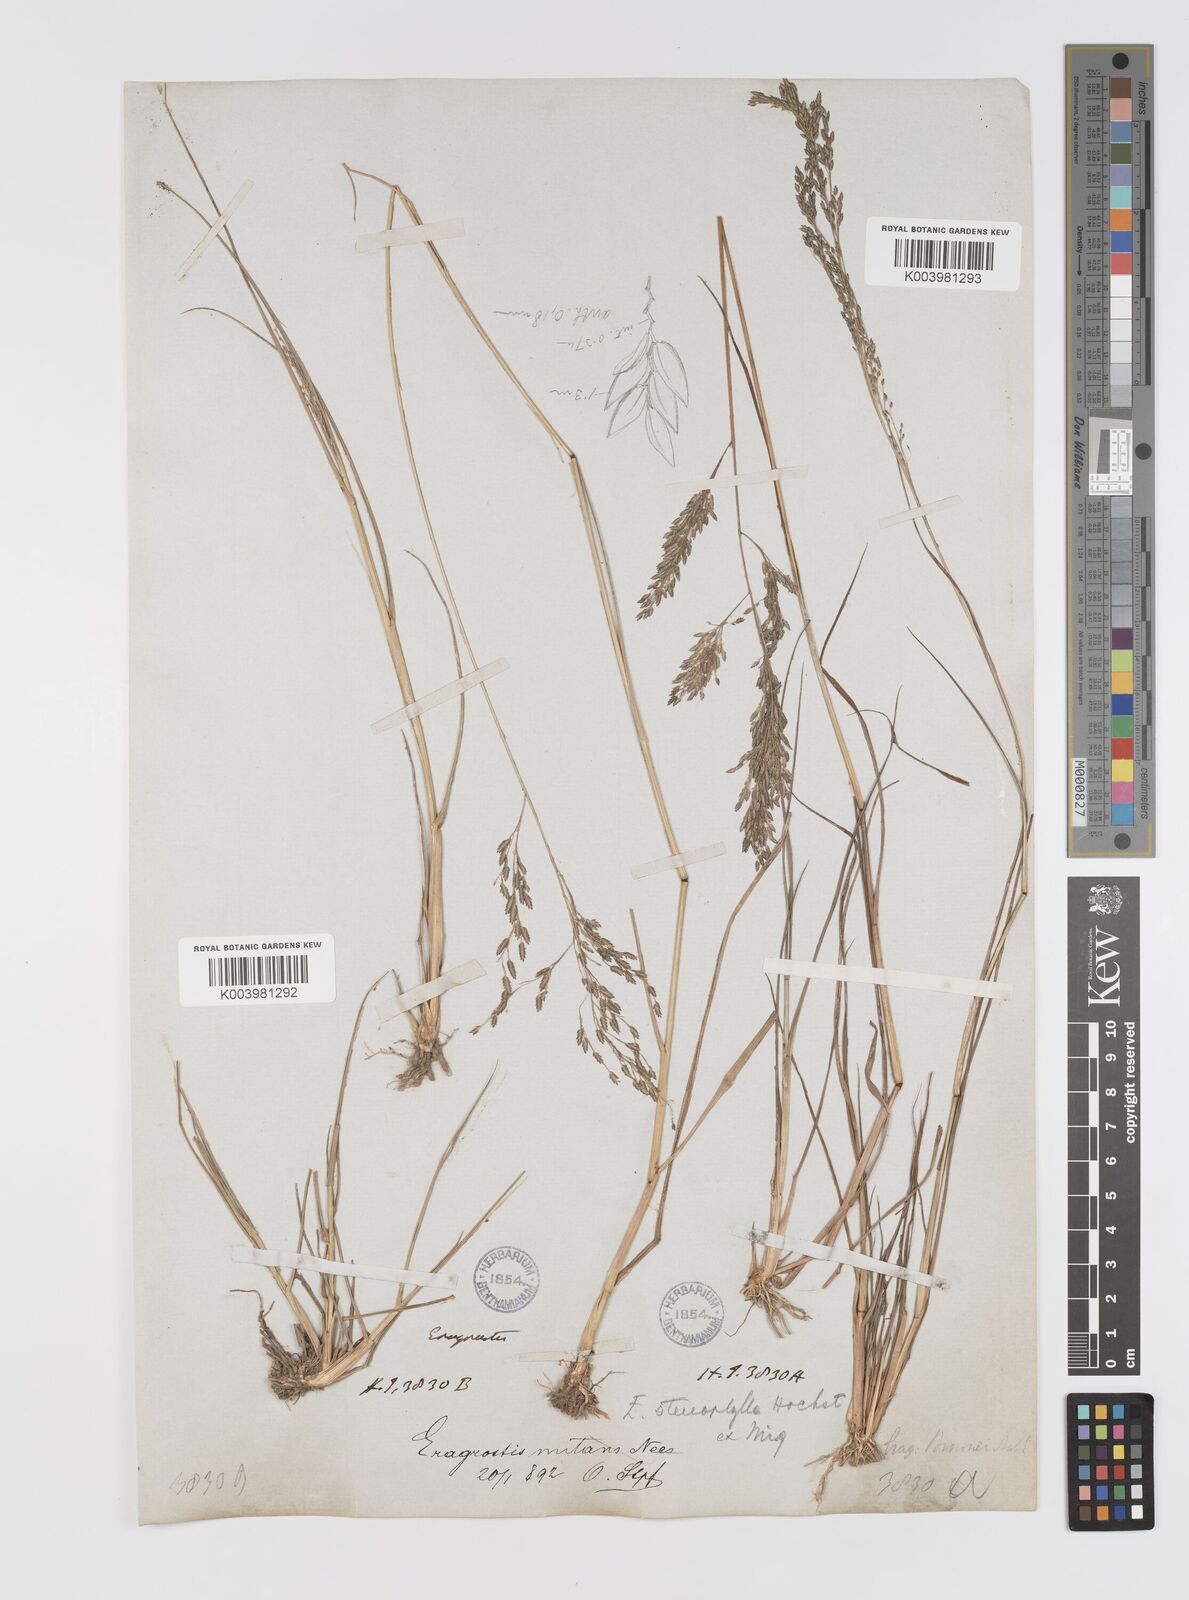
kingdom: Plantae
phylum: Tracheophyta
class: Liliopsida
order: Poales
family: Poaceae
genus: Eragrostis
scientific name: Eragrostis gangetica
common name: Slimflower lovegrass
